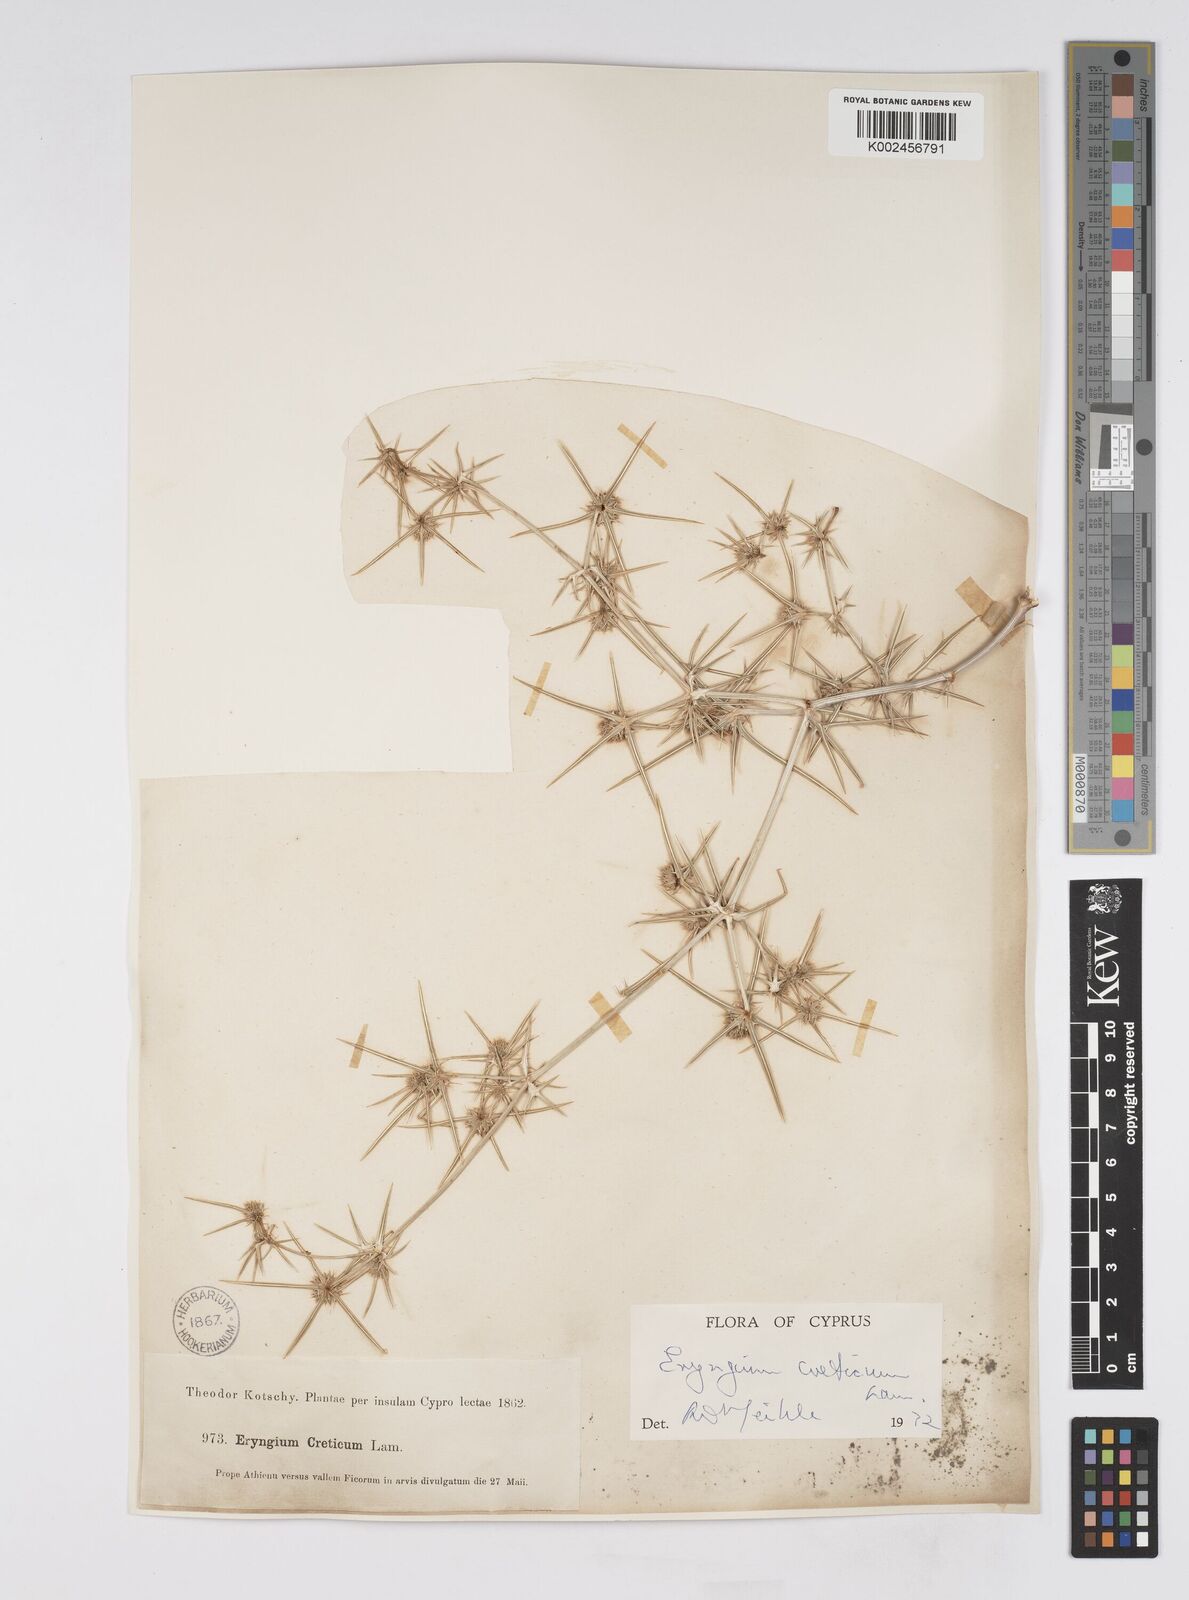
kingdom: Plantae
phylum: Tracheophyta
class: Magnoliopsida
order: Apiales
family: Apiaceae
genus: Eryngium
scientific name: Eryngium creticum
